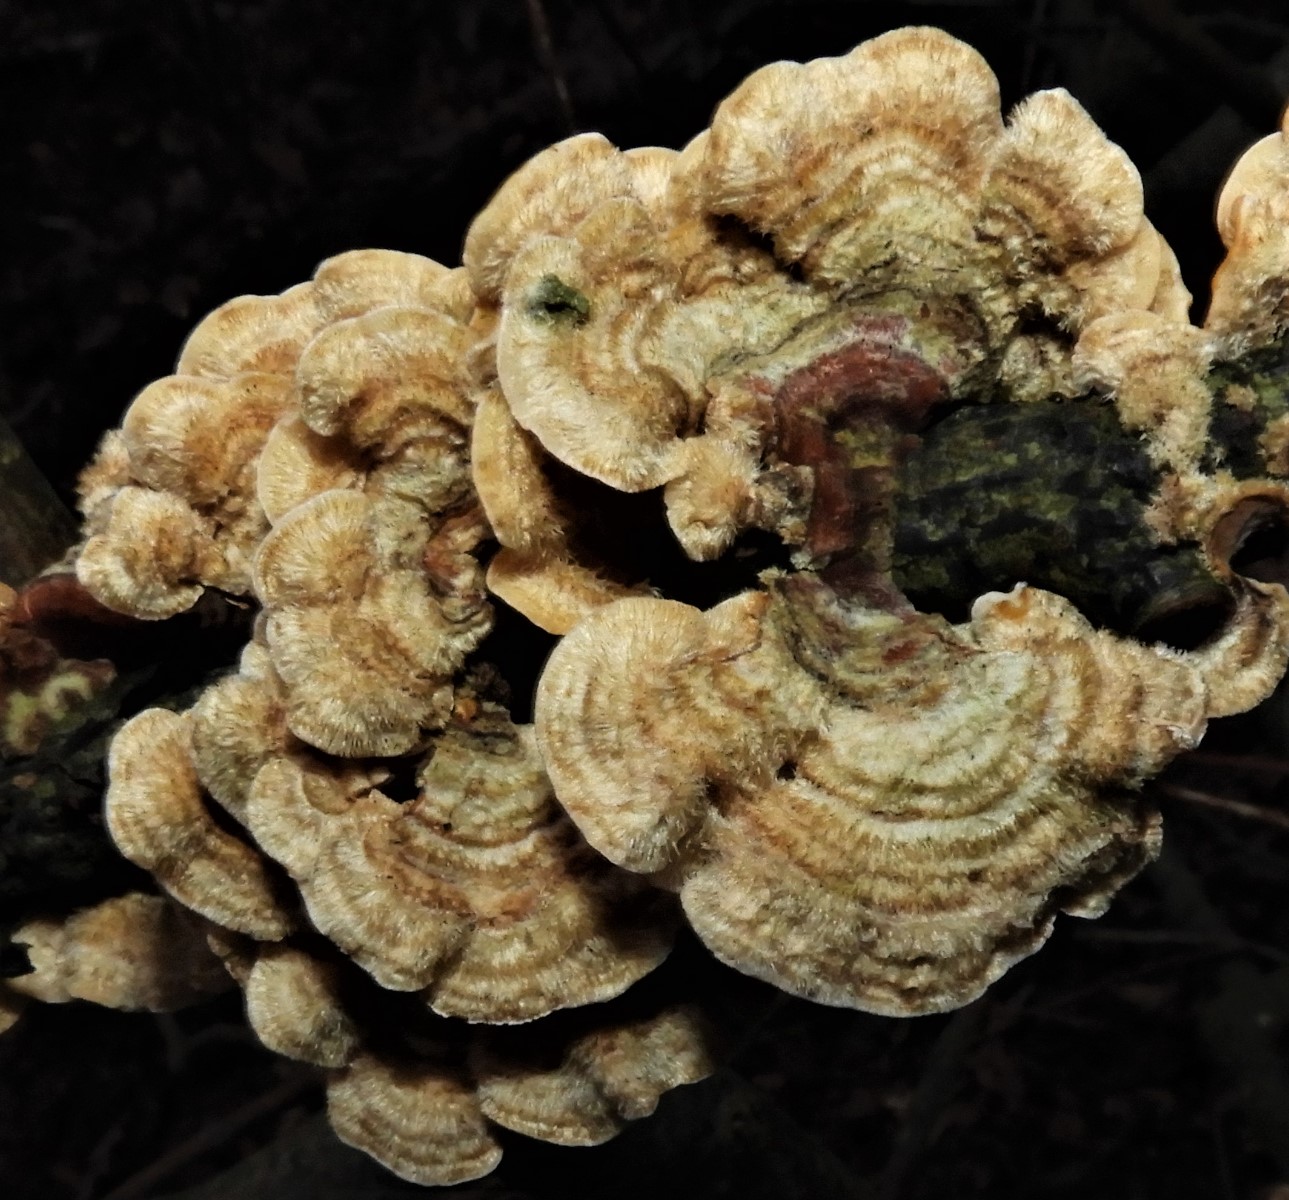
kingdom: Fungi
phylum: Basidiomycota
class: Agaricomycetes
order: Russulales
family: Stereaceae
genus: Stereum
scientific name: Stereum hirsutum
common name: håret lædersvamp
